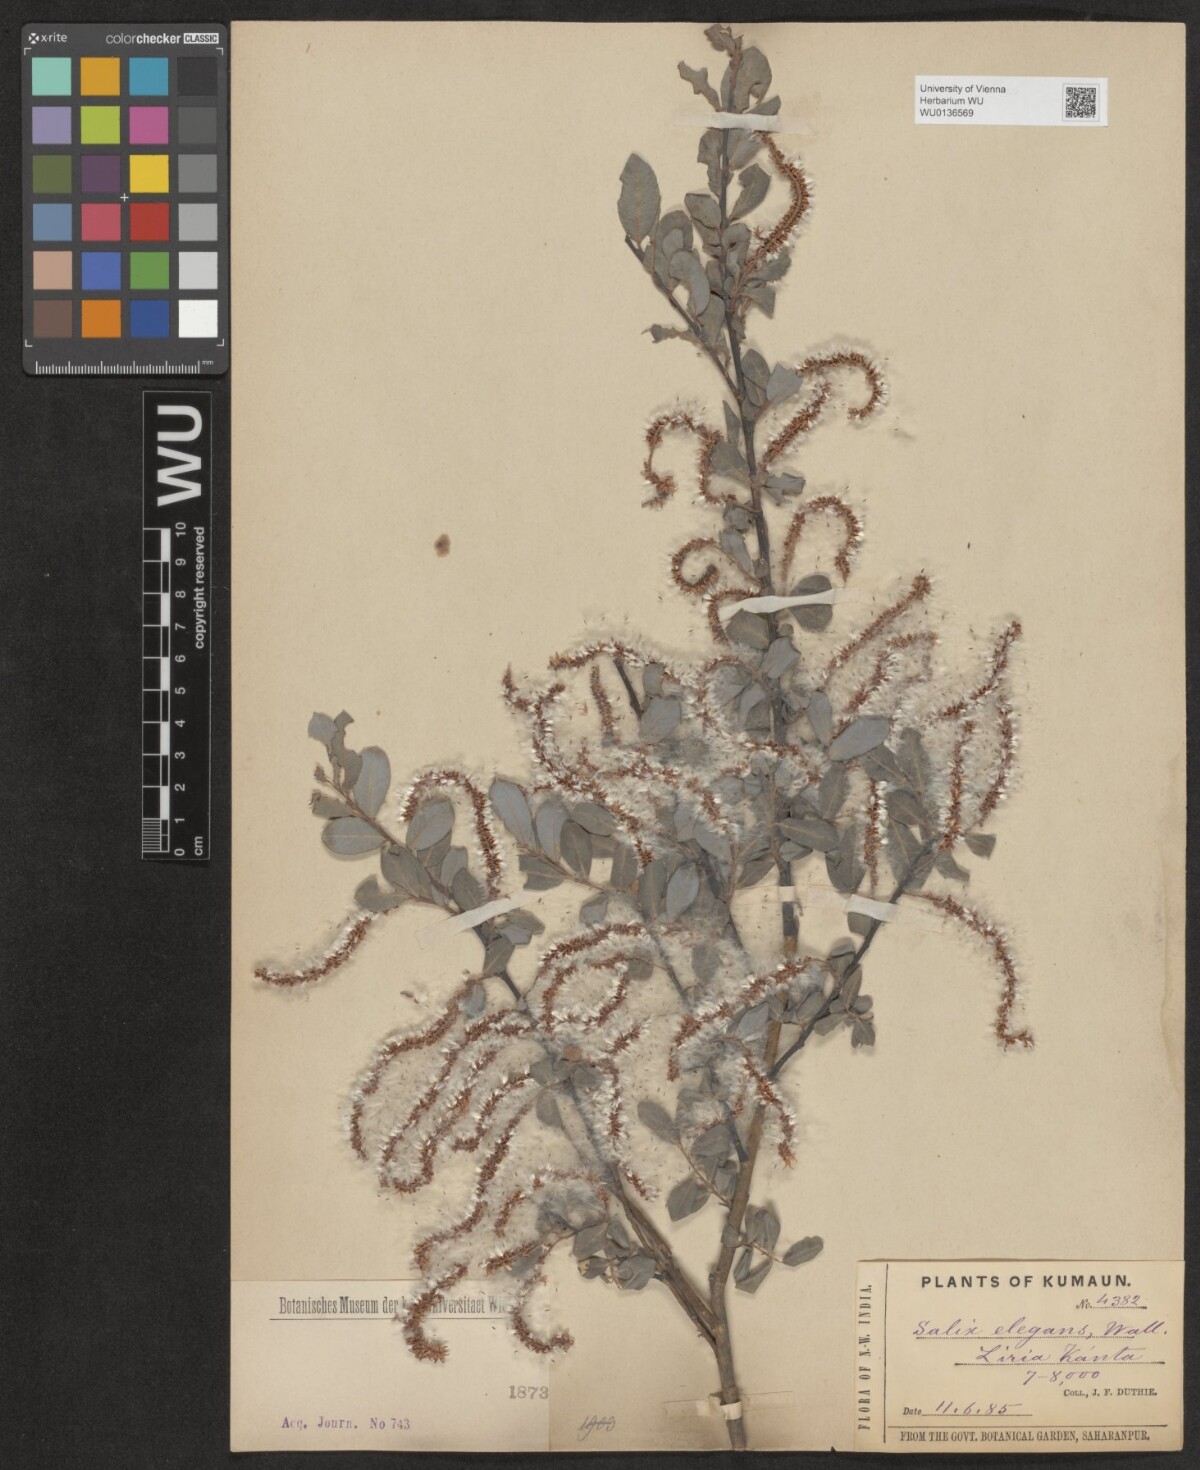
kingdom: Plantae
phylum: Tracheophyta
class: Magnoliopsida
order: Malpighiales
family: Salicaceae
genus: Salix
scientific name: Salix hastata
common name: Halberd willow
